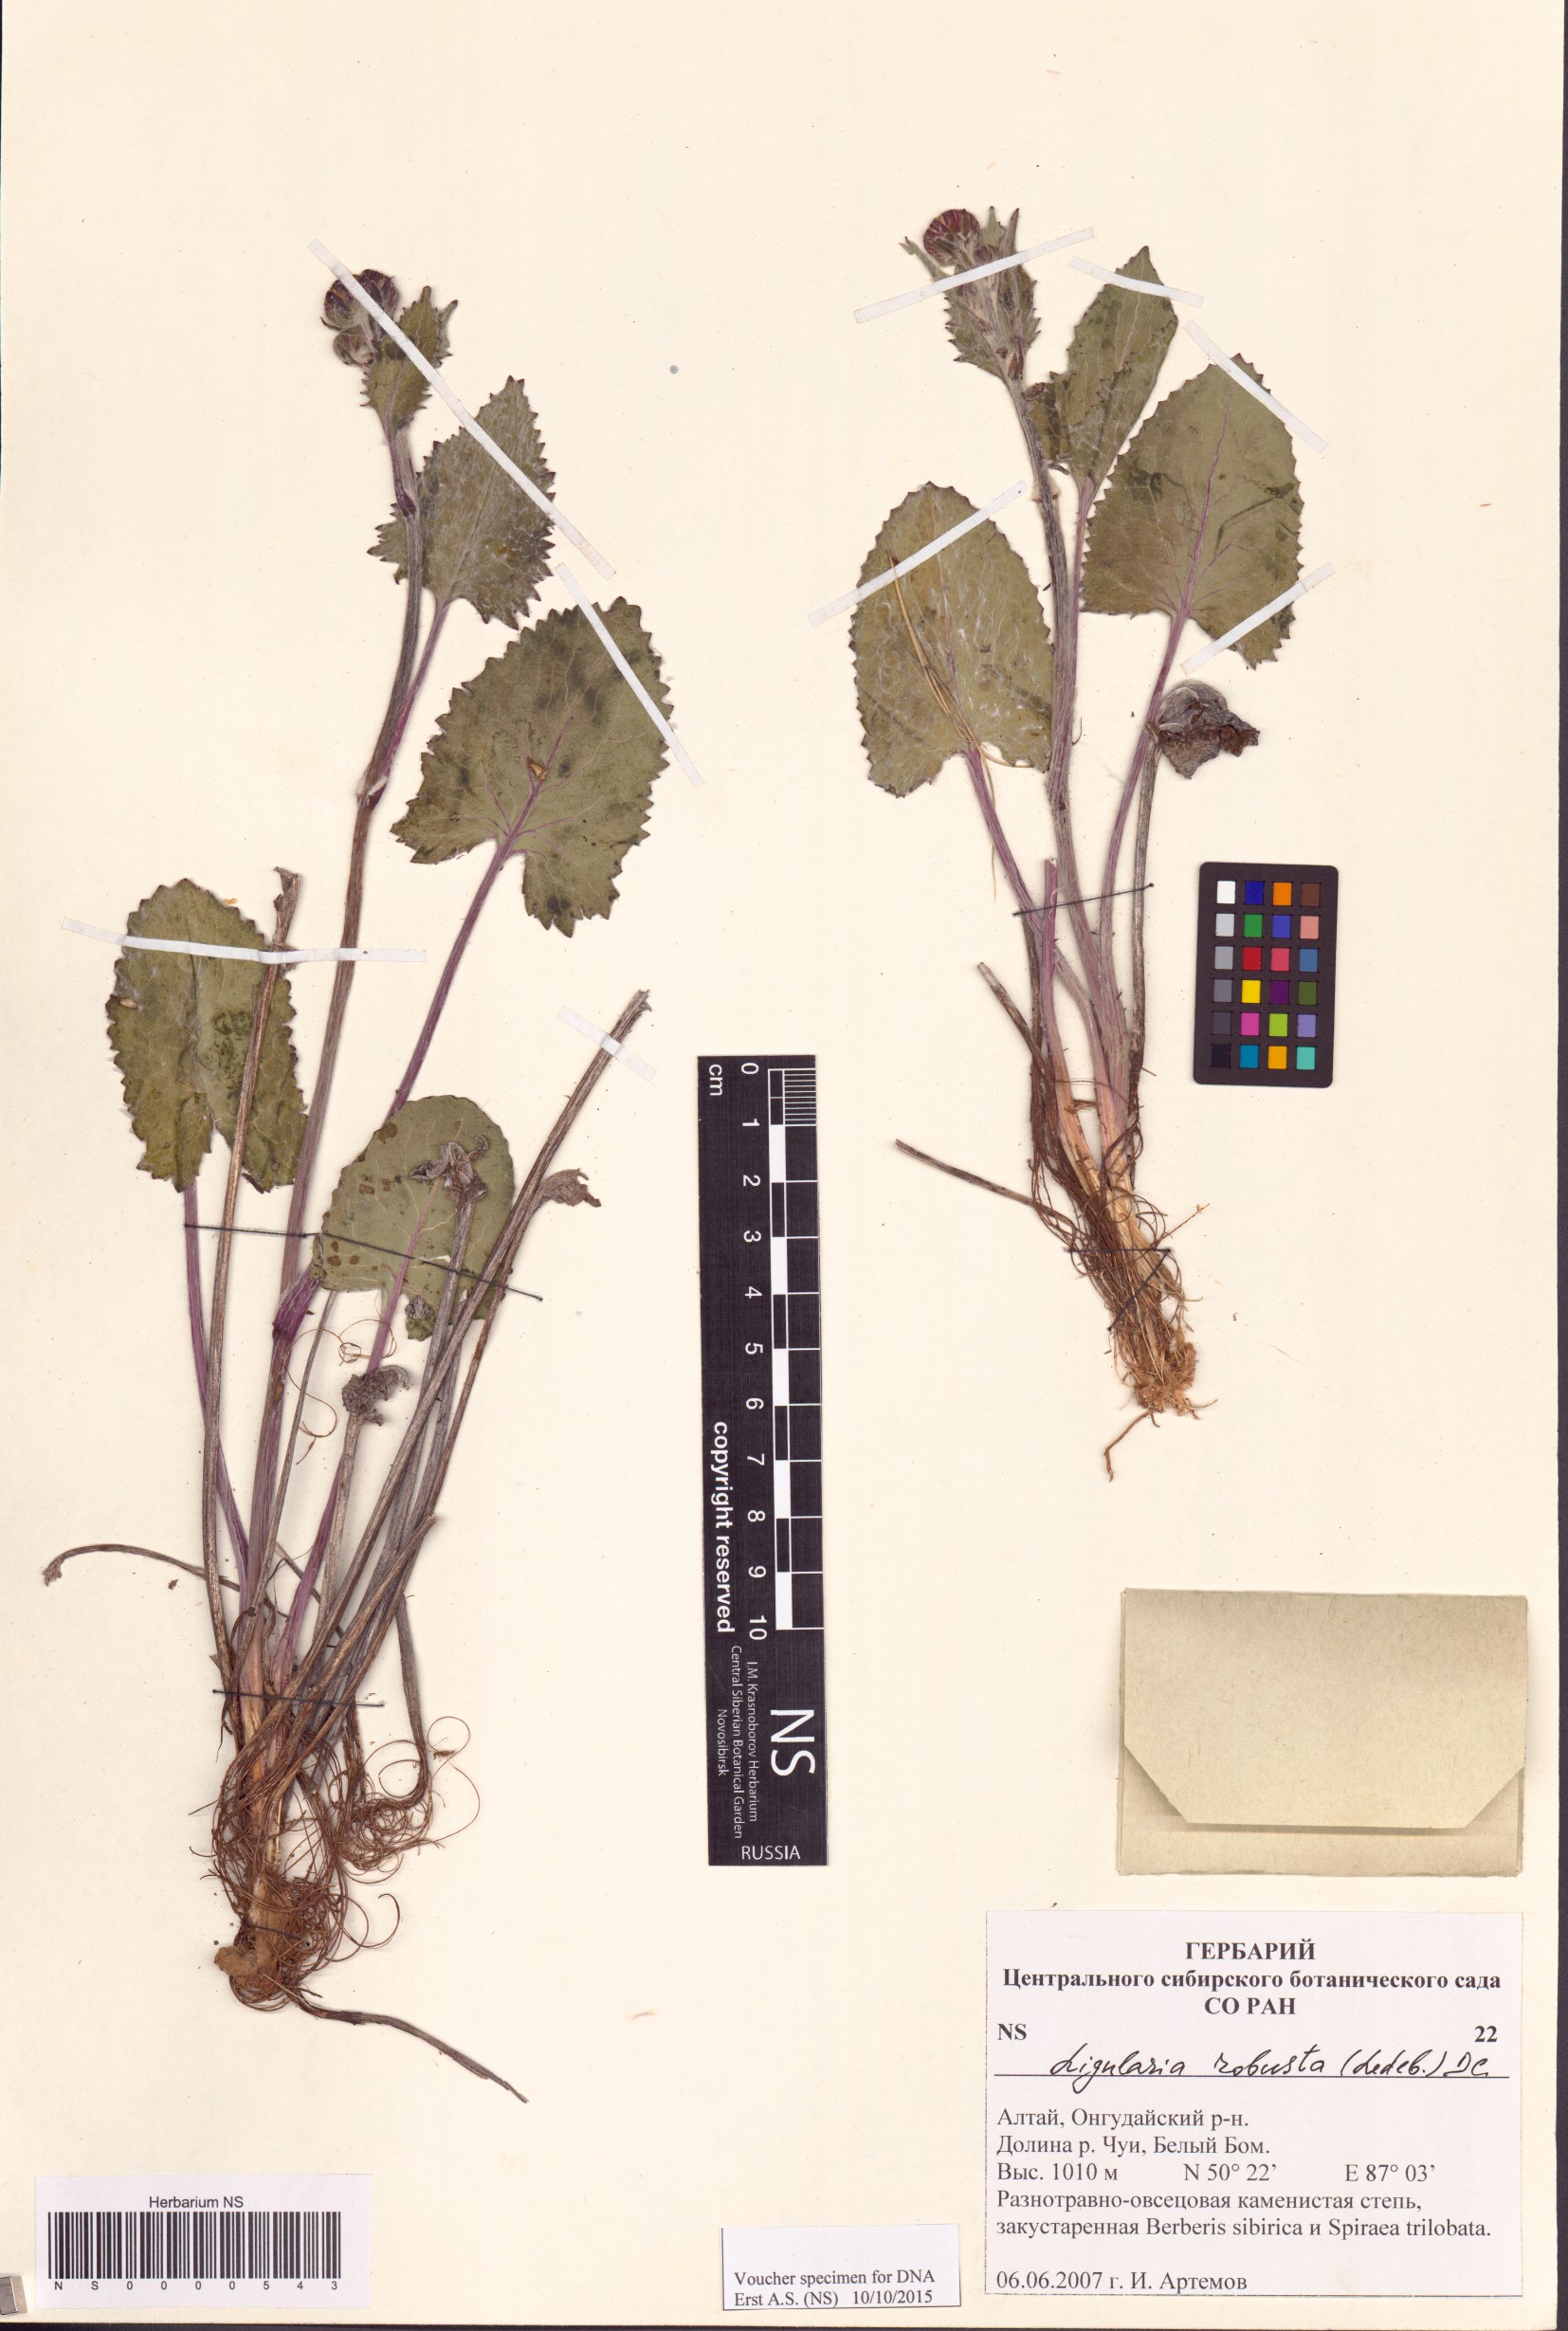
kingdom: Plantae
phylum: Tracheophyta
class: Magnoliopsida
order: Asterales
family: Asteraceae
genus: Vickifunkia
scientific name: Vickifunkia robusta
